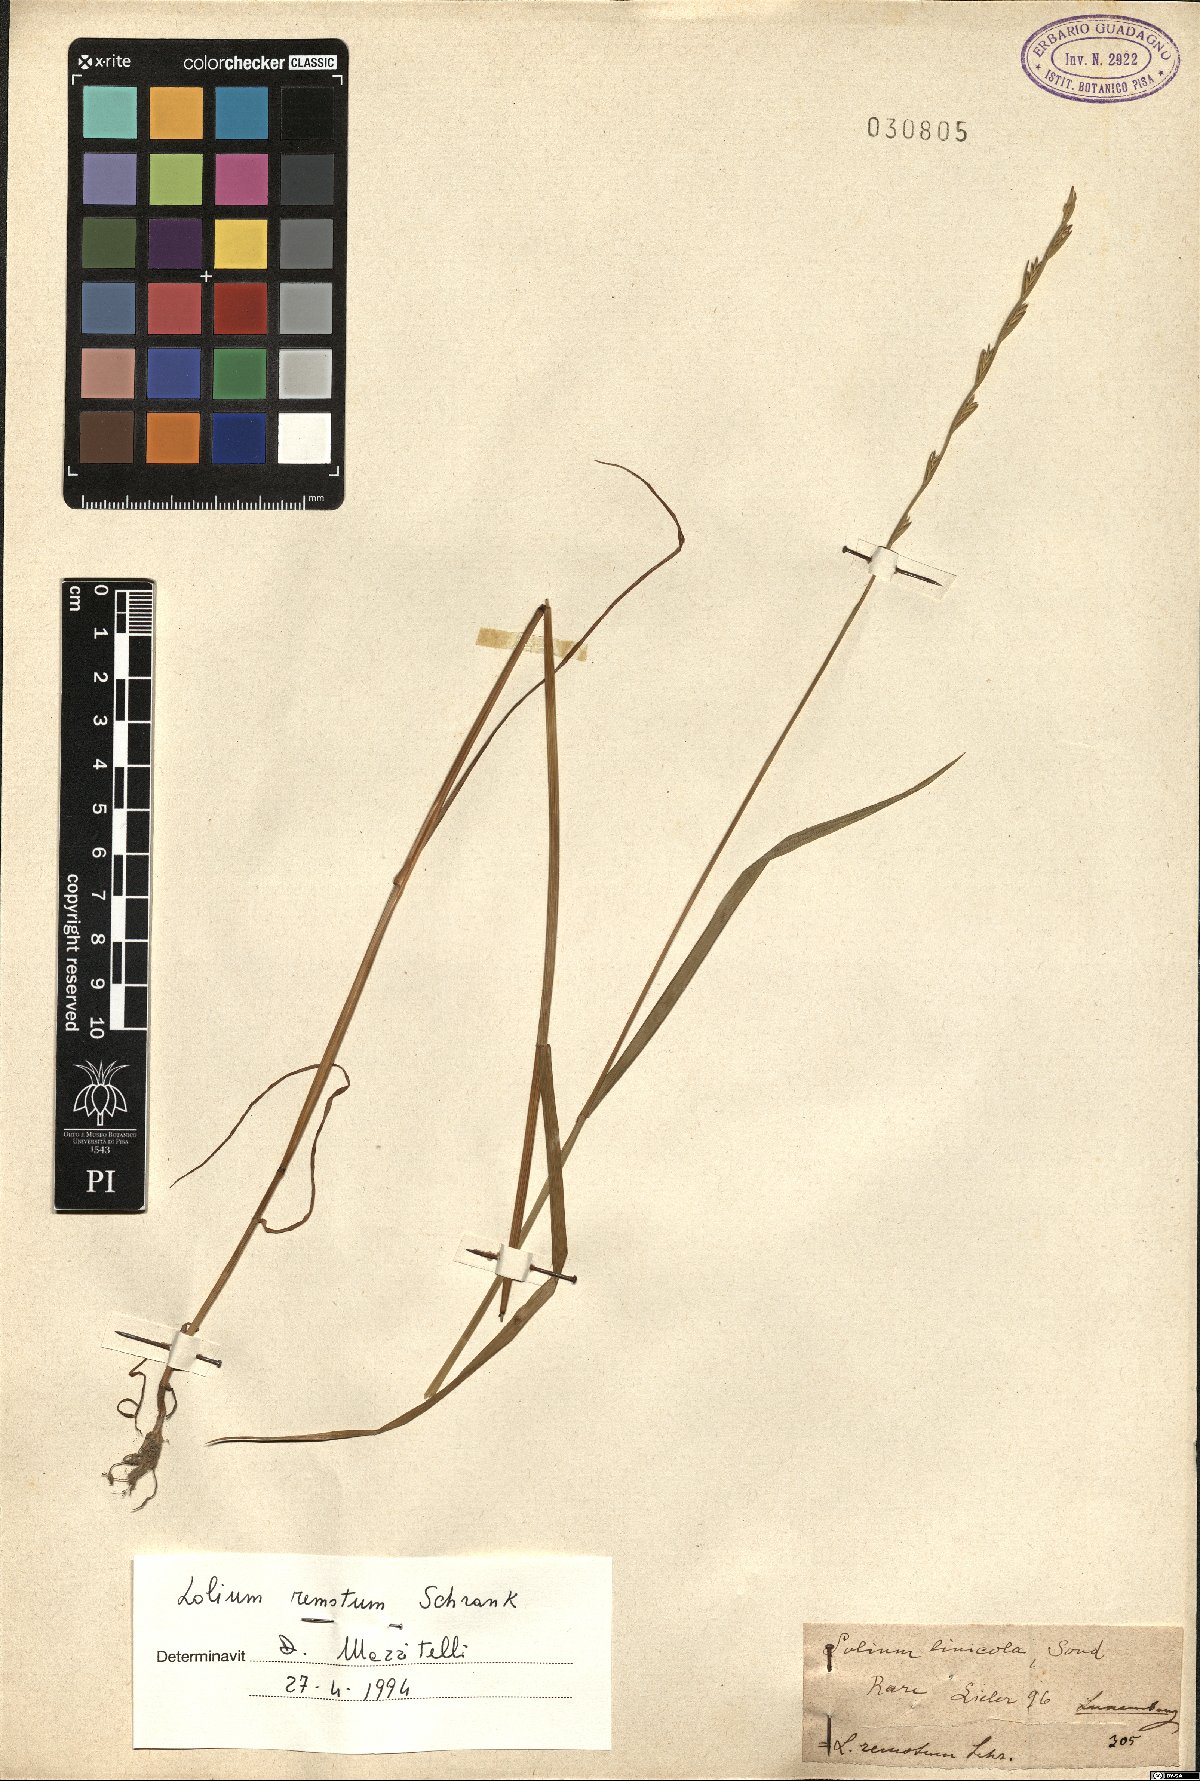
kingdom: Plantae
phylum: Tracheophyta
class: Liliopsida
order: Poales
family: Poaceae
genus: Lolium
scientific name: Lolium remotum
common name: Flaxfield rye-grass
